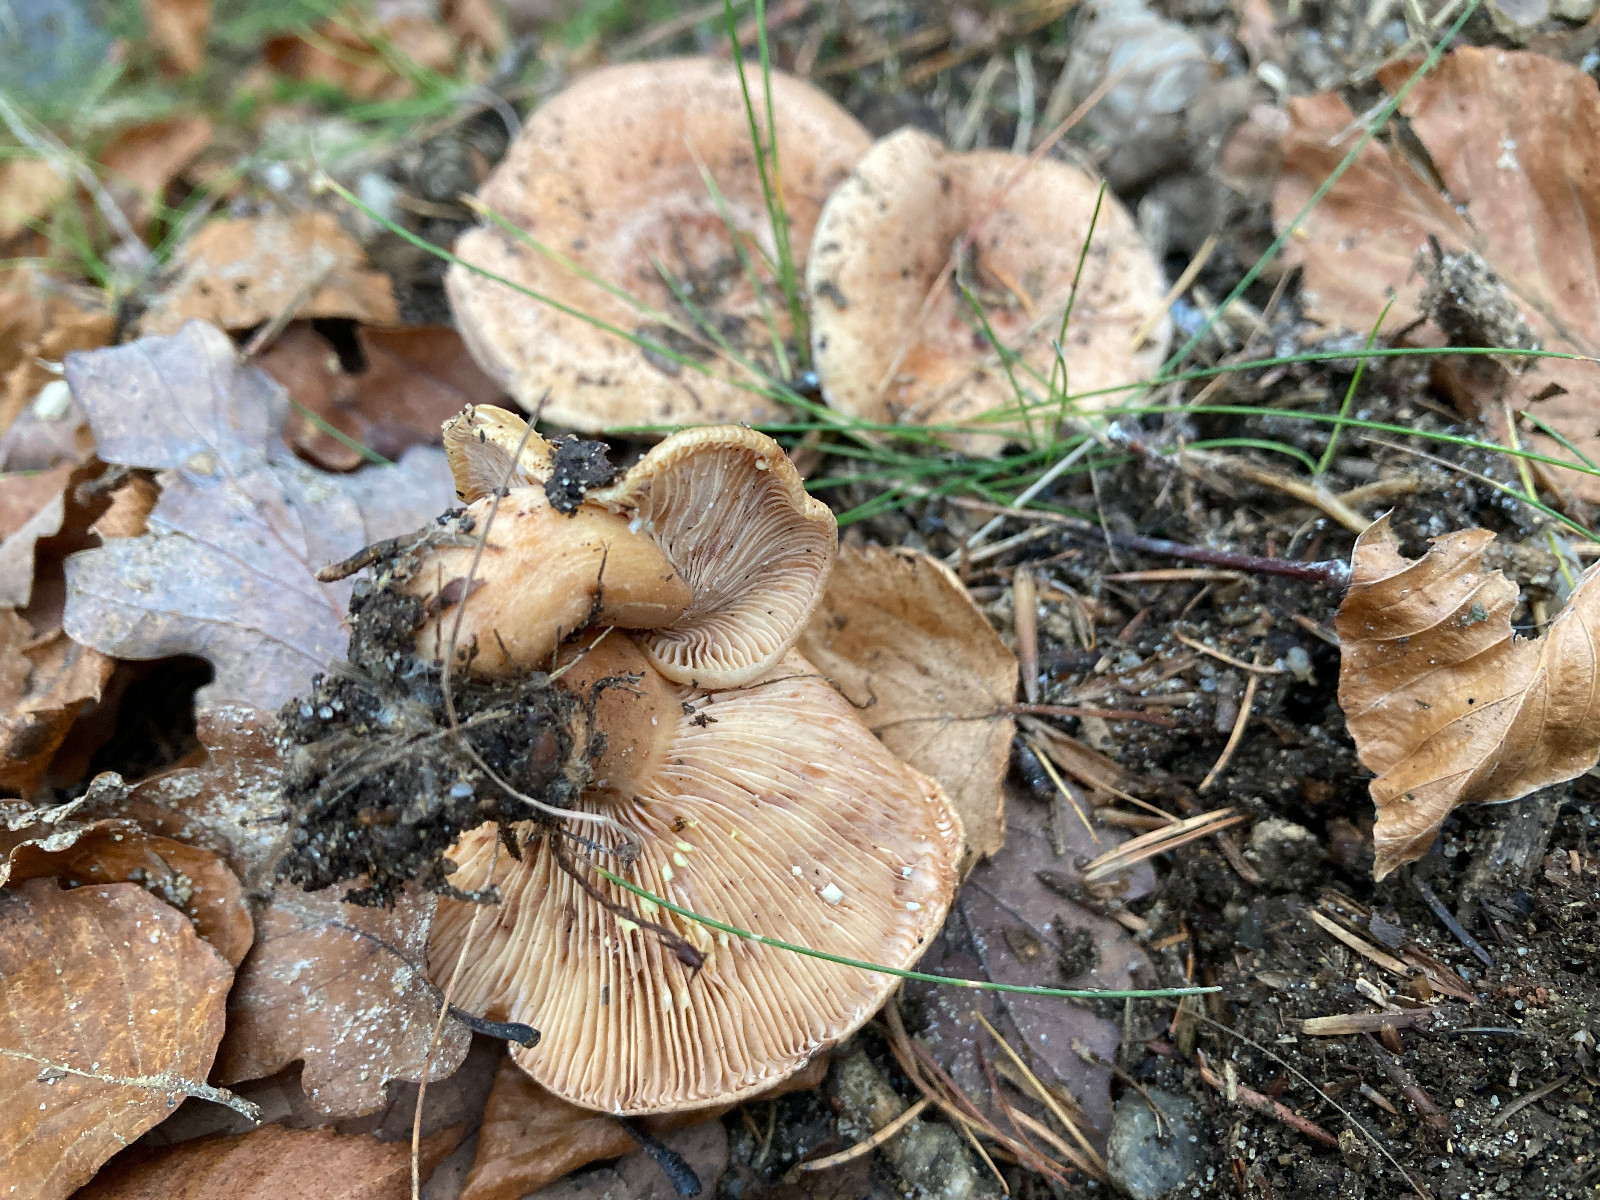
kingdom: Fungi
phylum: Basidiomycota
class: Agaricomycetes
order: Russulales
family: Russulaceae
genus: Lactarius
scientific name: Lactarius chrysorrheus
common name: svovlmælket mælkehat
